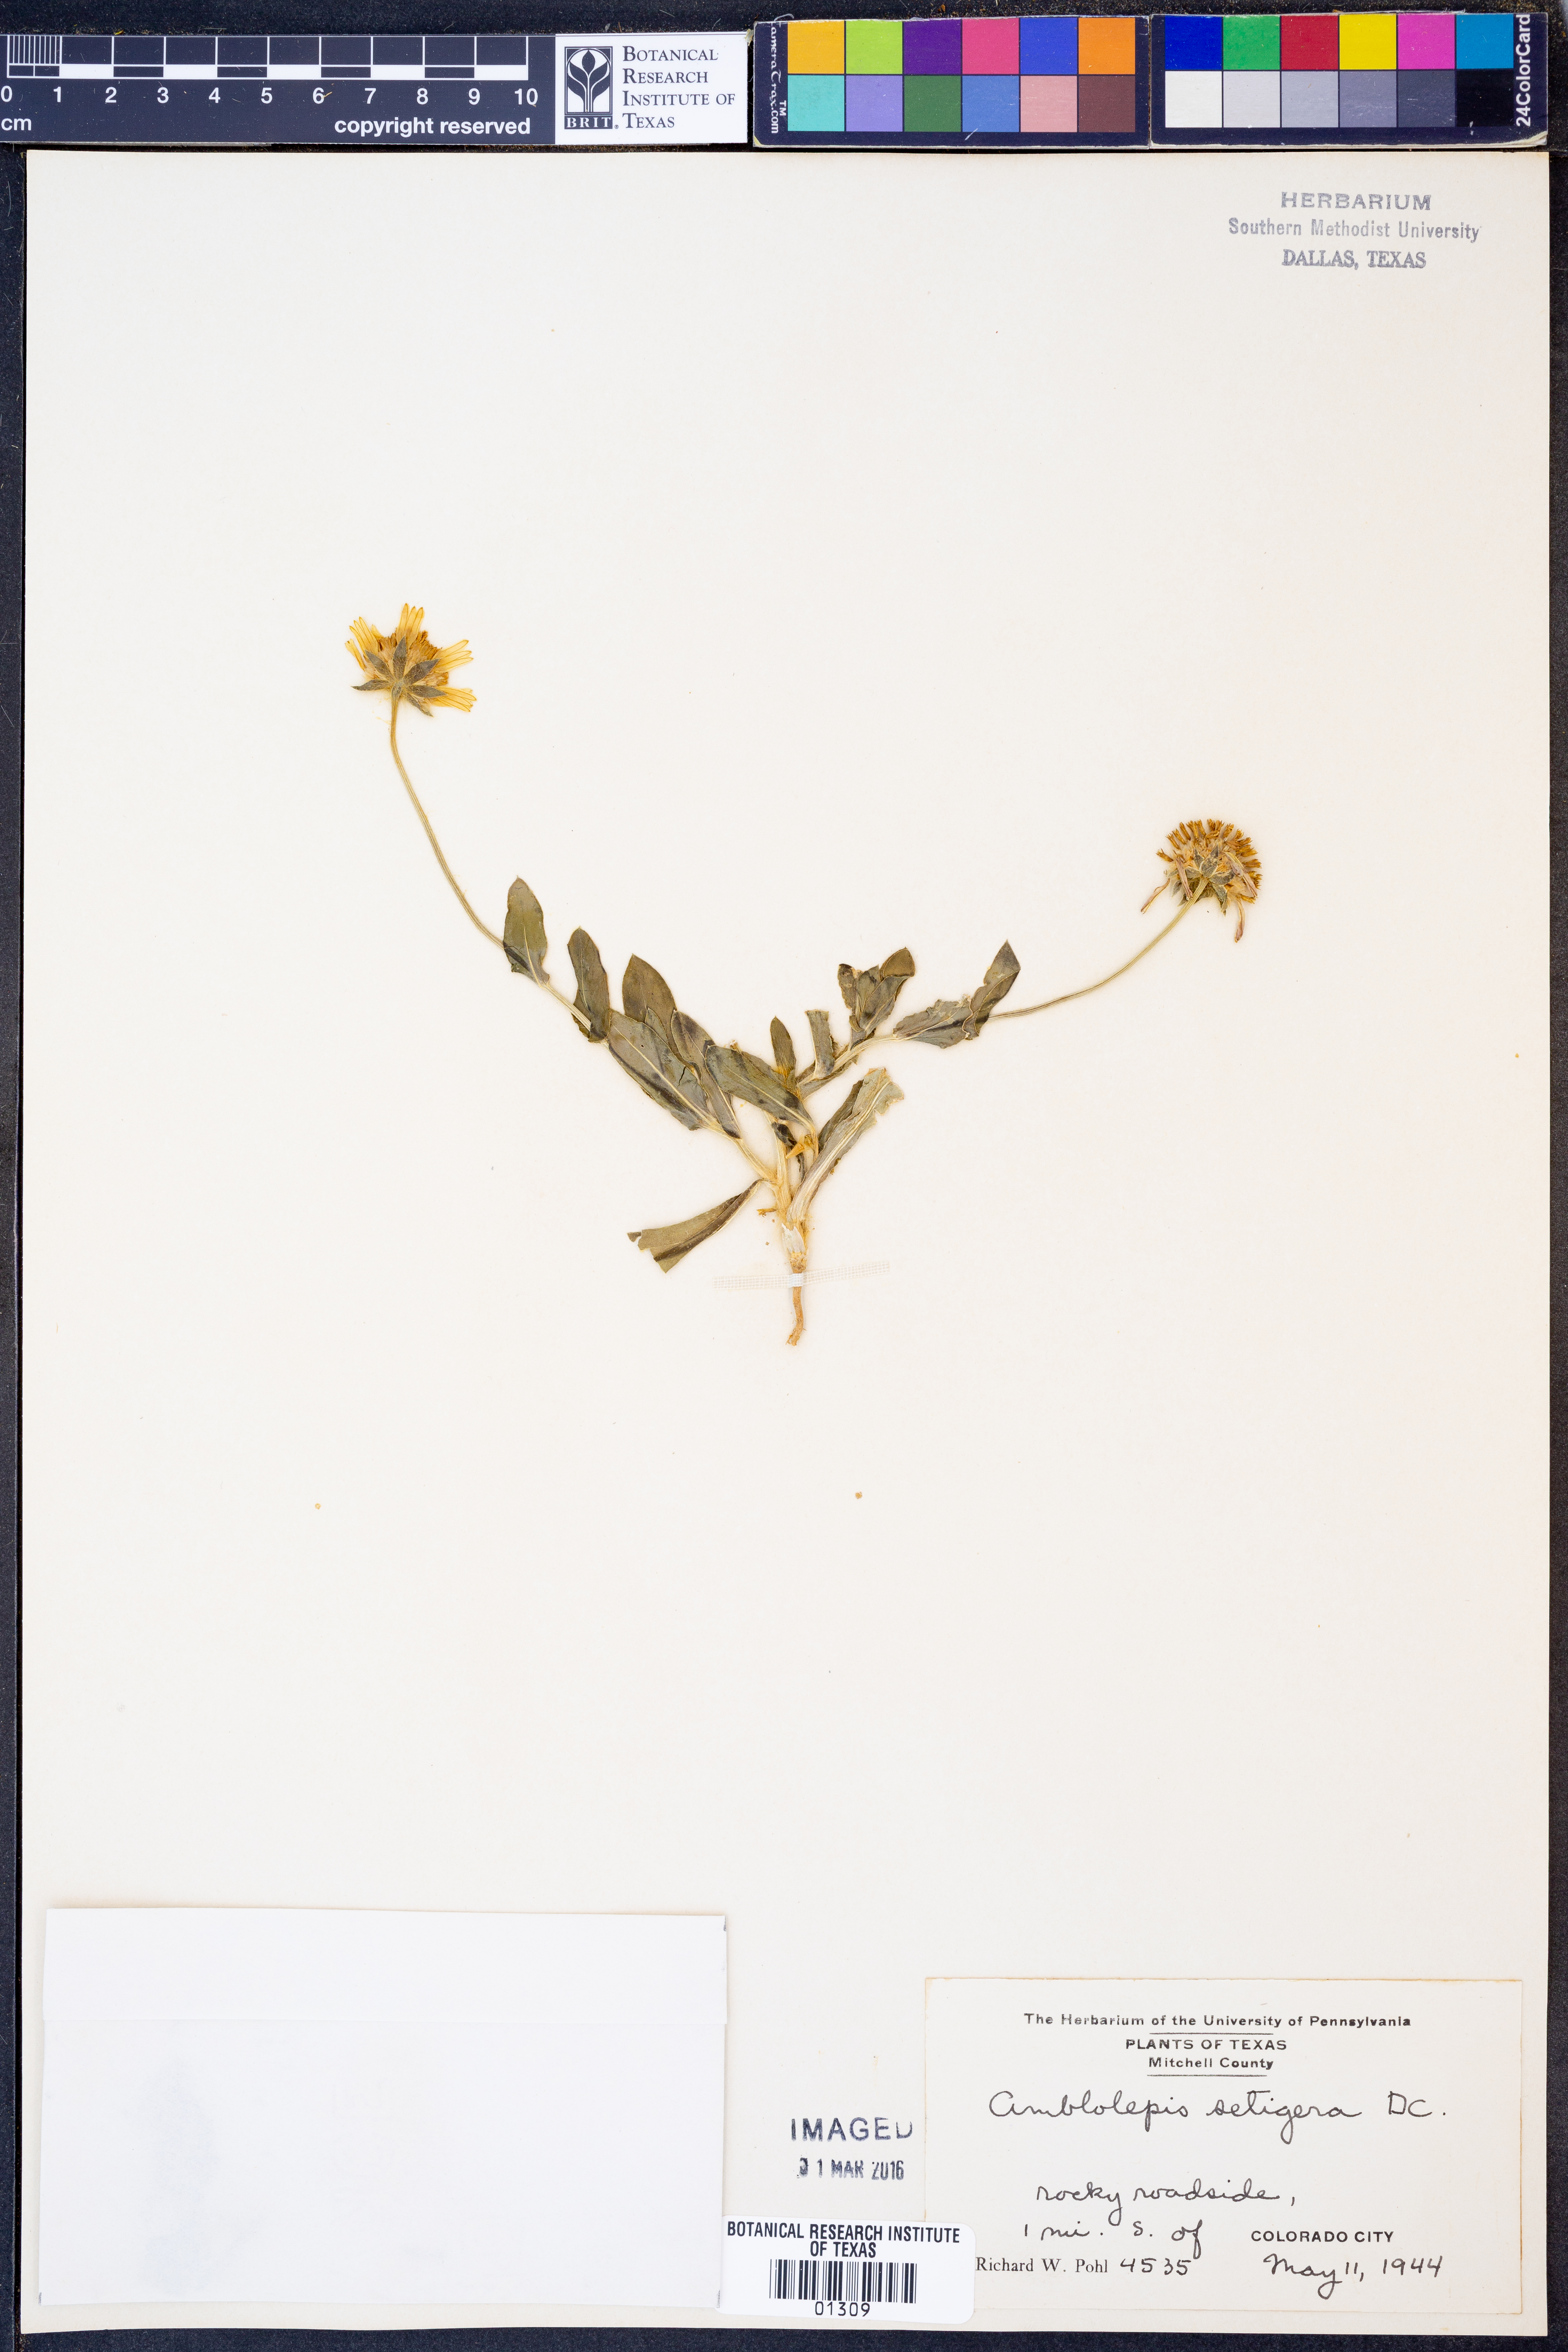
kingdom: Plantae
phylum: Tracheophyta
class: Magnoliopsida
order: Asterales
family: Asteraceae
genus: Amblyolepis
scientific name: Amblyolepis setigera
